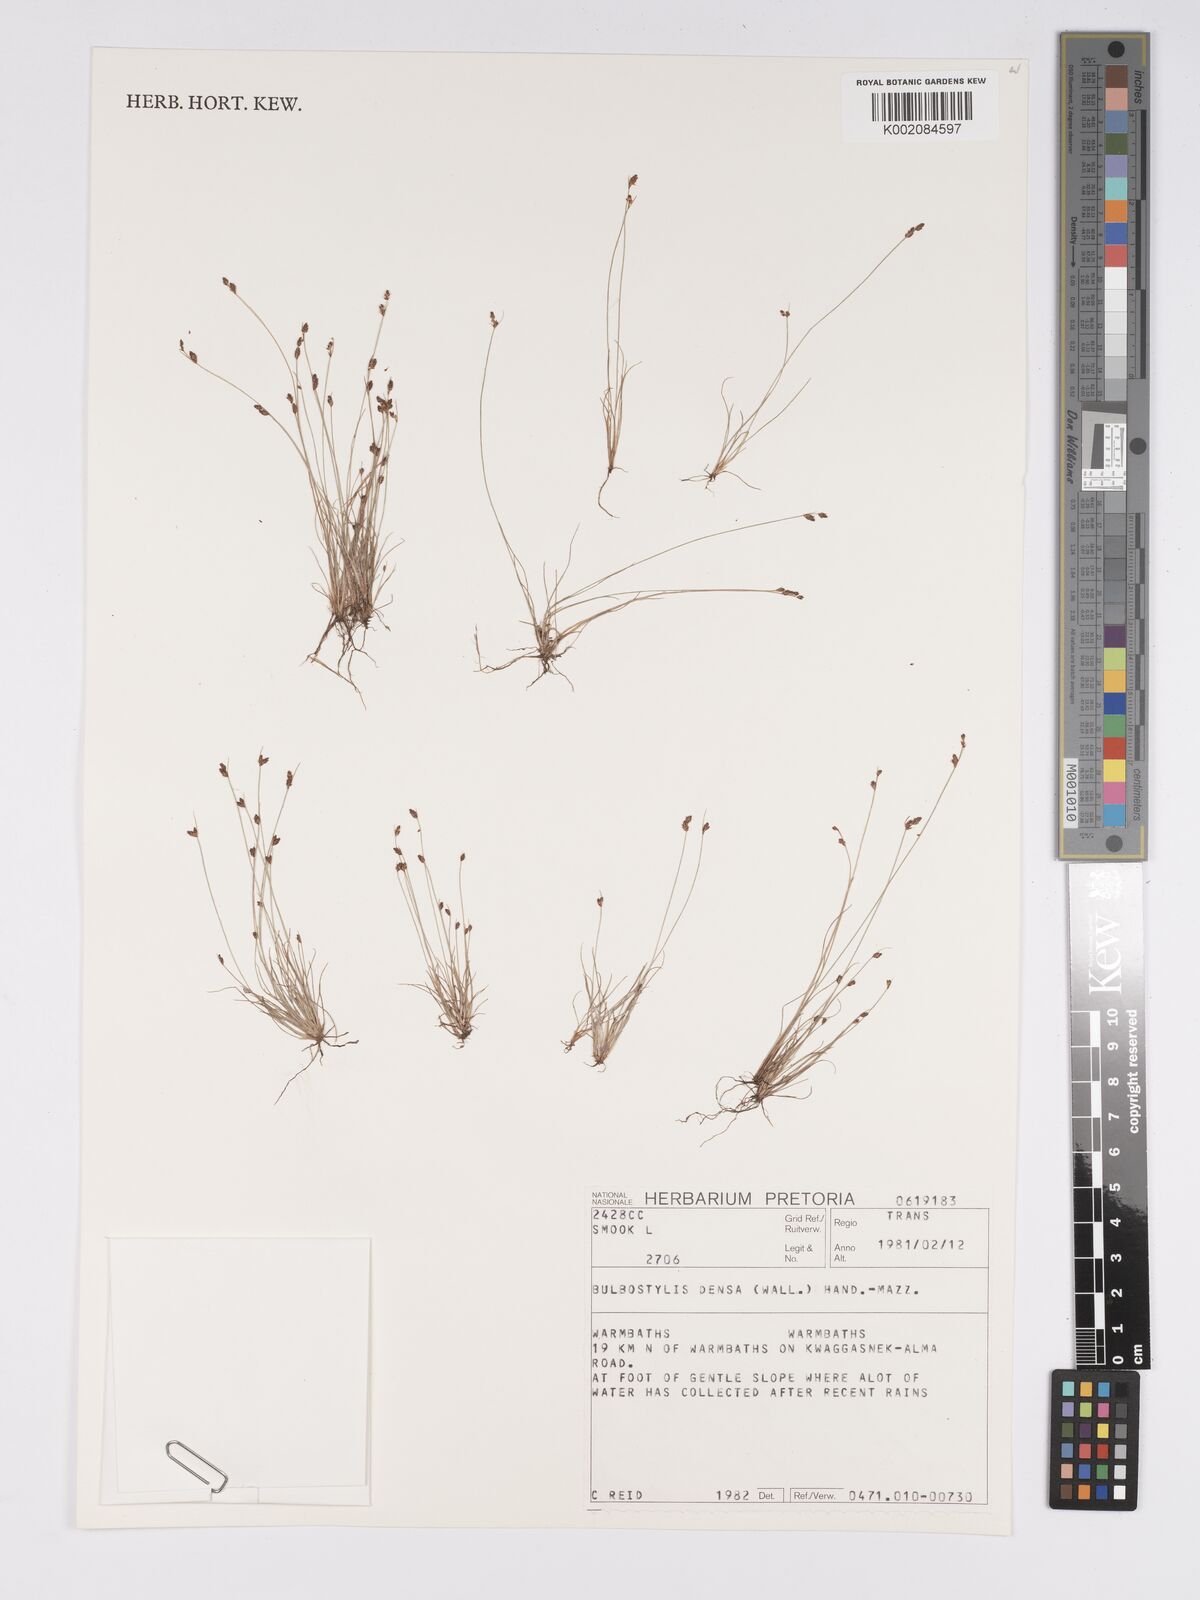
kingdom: Plantae
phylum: Tracheophyta
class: Liliopsida
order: Poales
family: Cyperaceae
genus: Bulbostylis
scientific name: Bulbostylis densa
